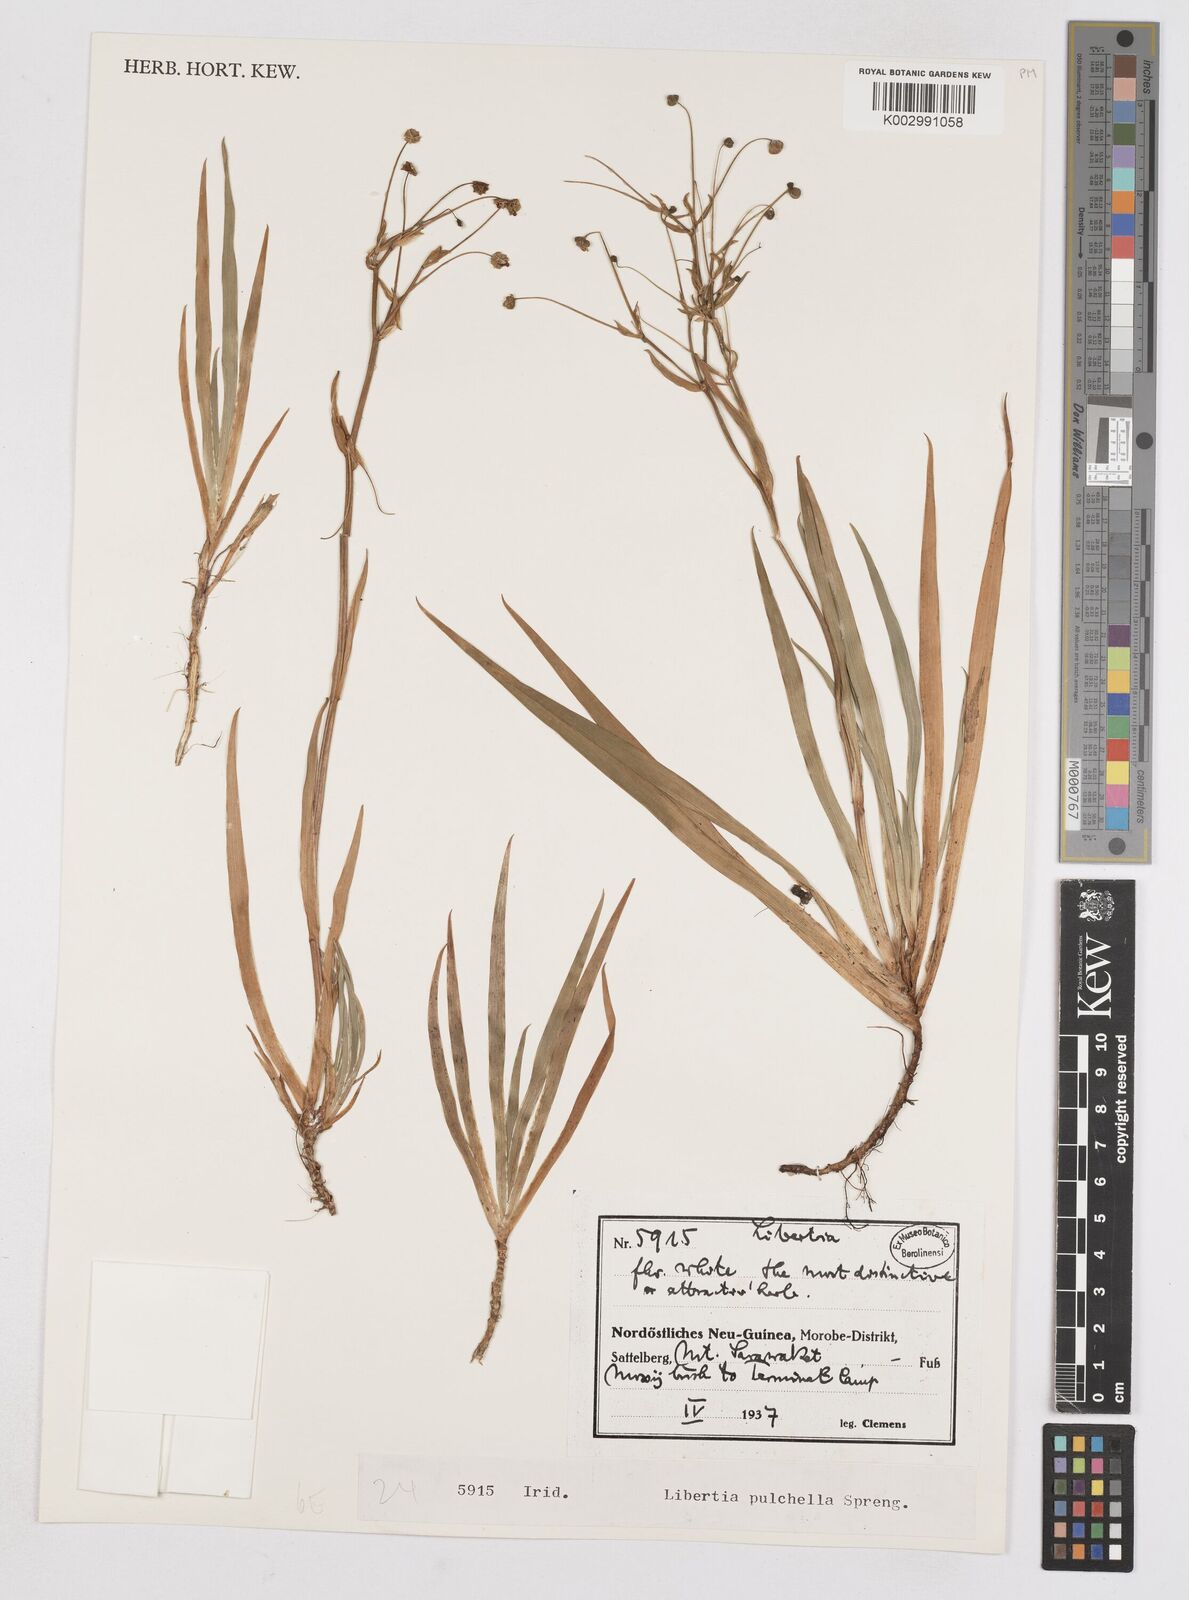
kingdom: Plantae
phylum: Tracheophyta
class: Liliopsida
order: Asparagales
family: Iridaceae
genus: Libertia
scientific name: Libertia pulchella
